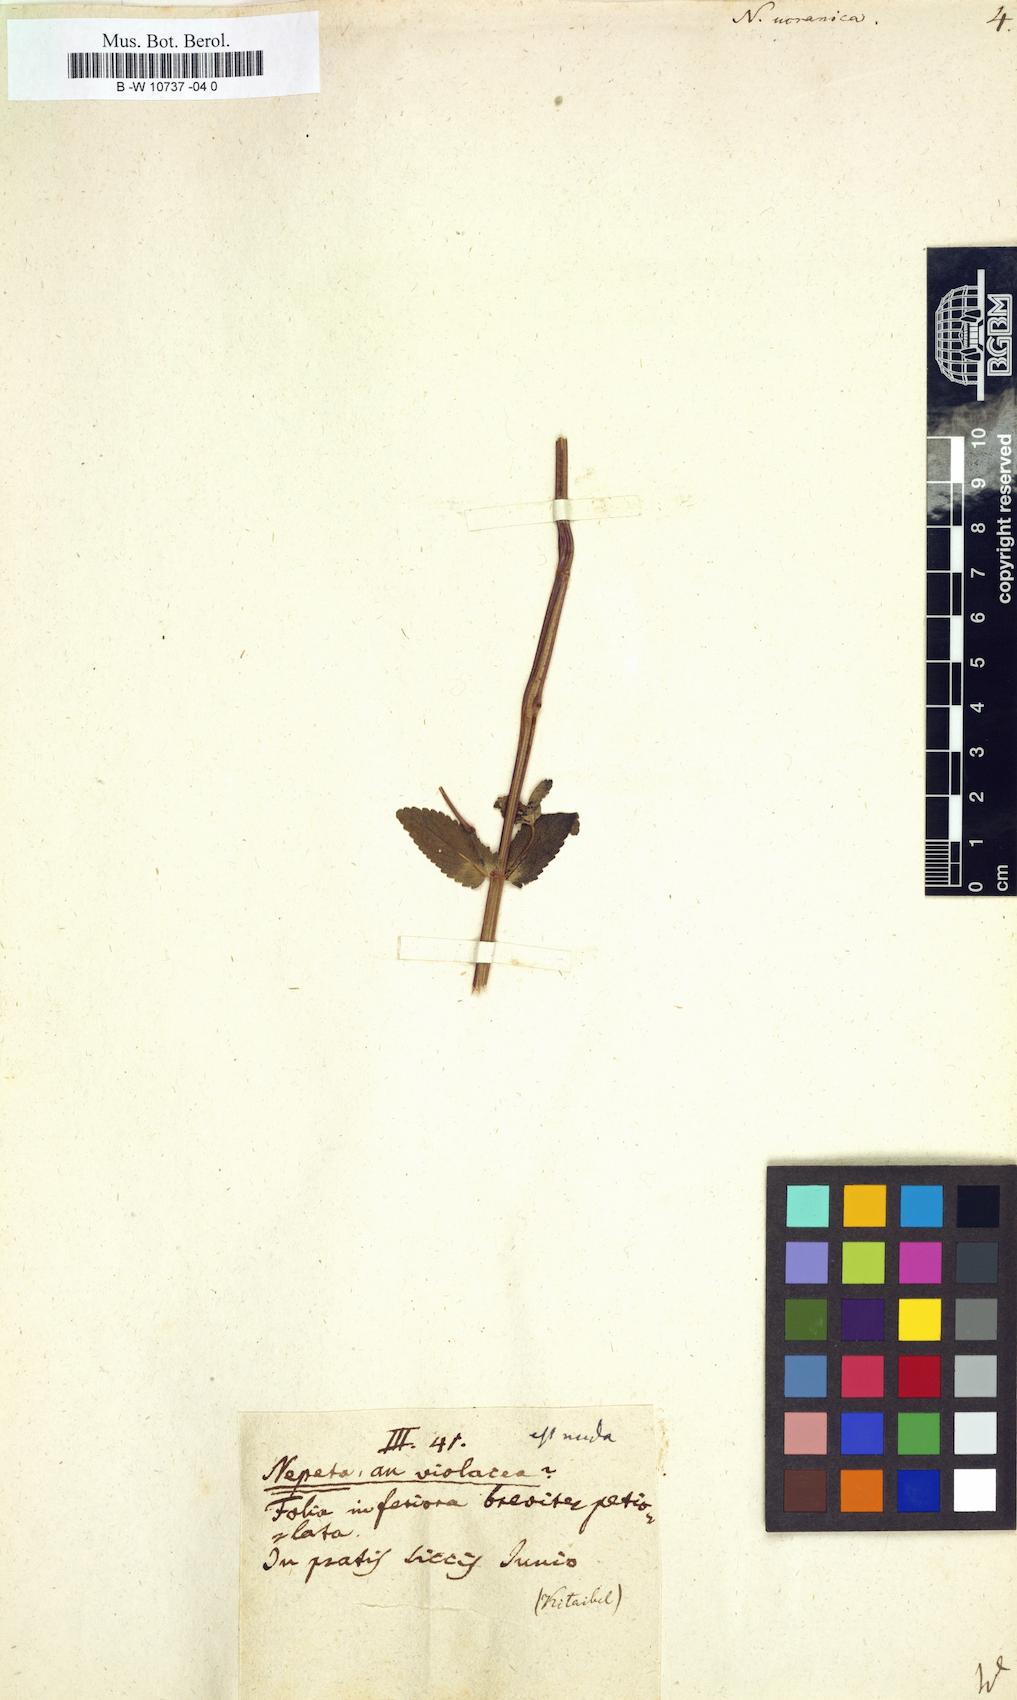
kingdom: Plantae
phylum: Tracheophyta
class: Magnoliopsida
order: Lamiales
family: Lamiaceae
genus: Nepeta
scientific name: Nepeta ucranica
